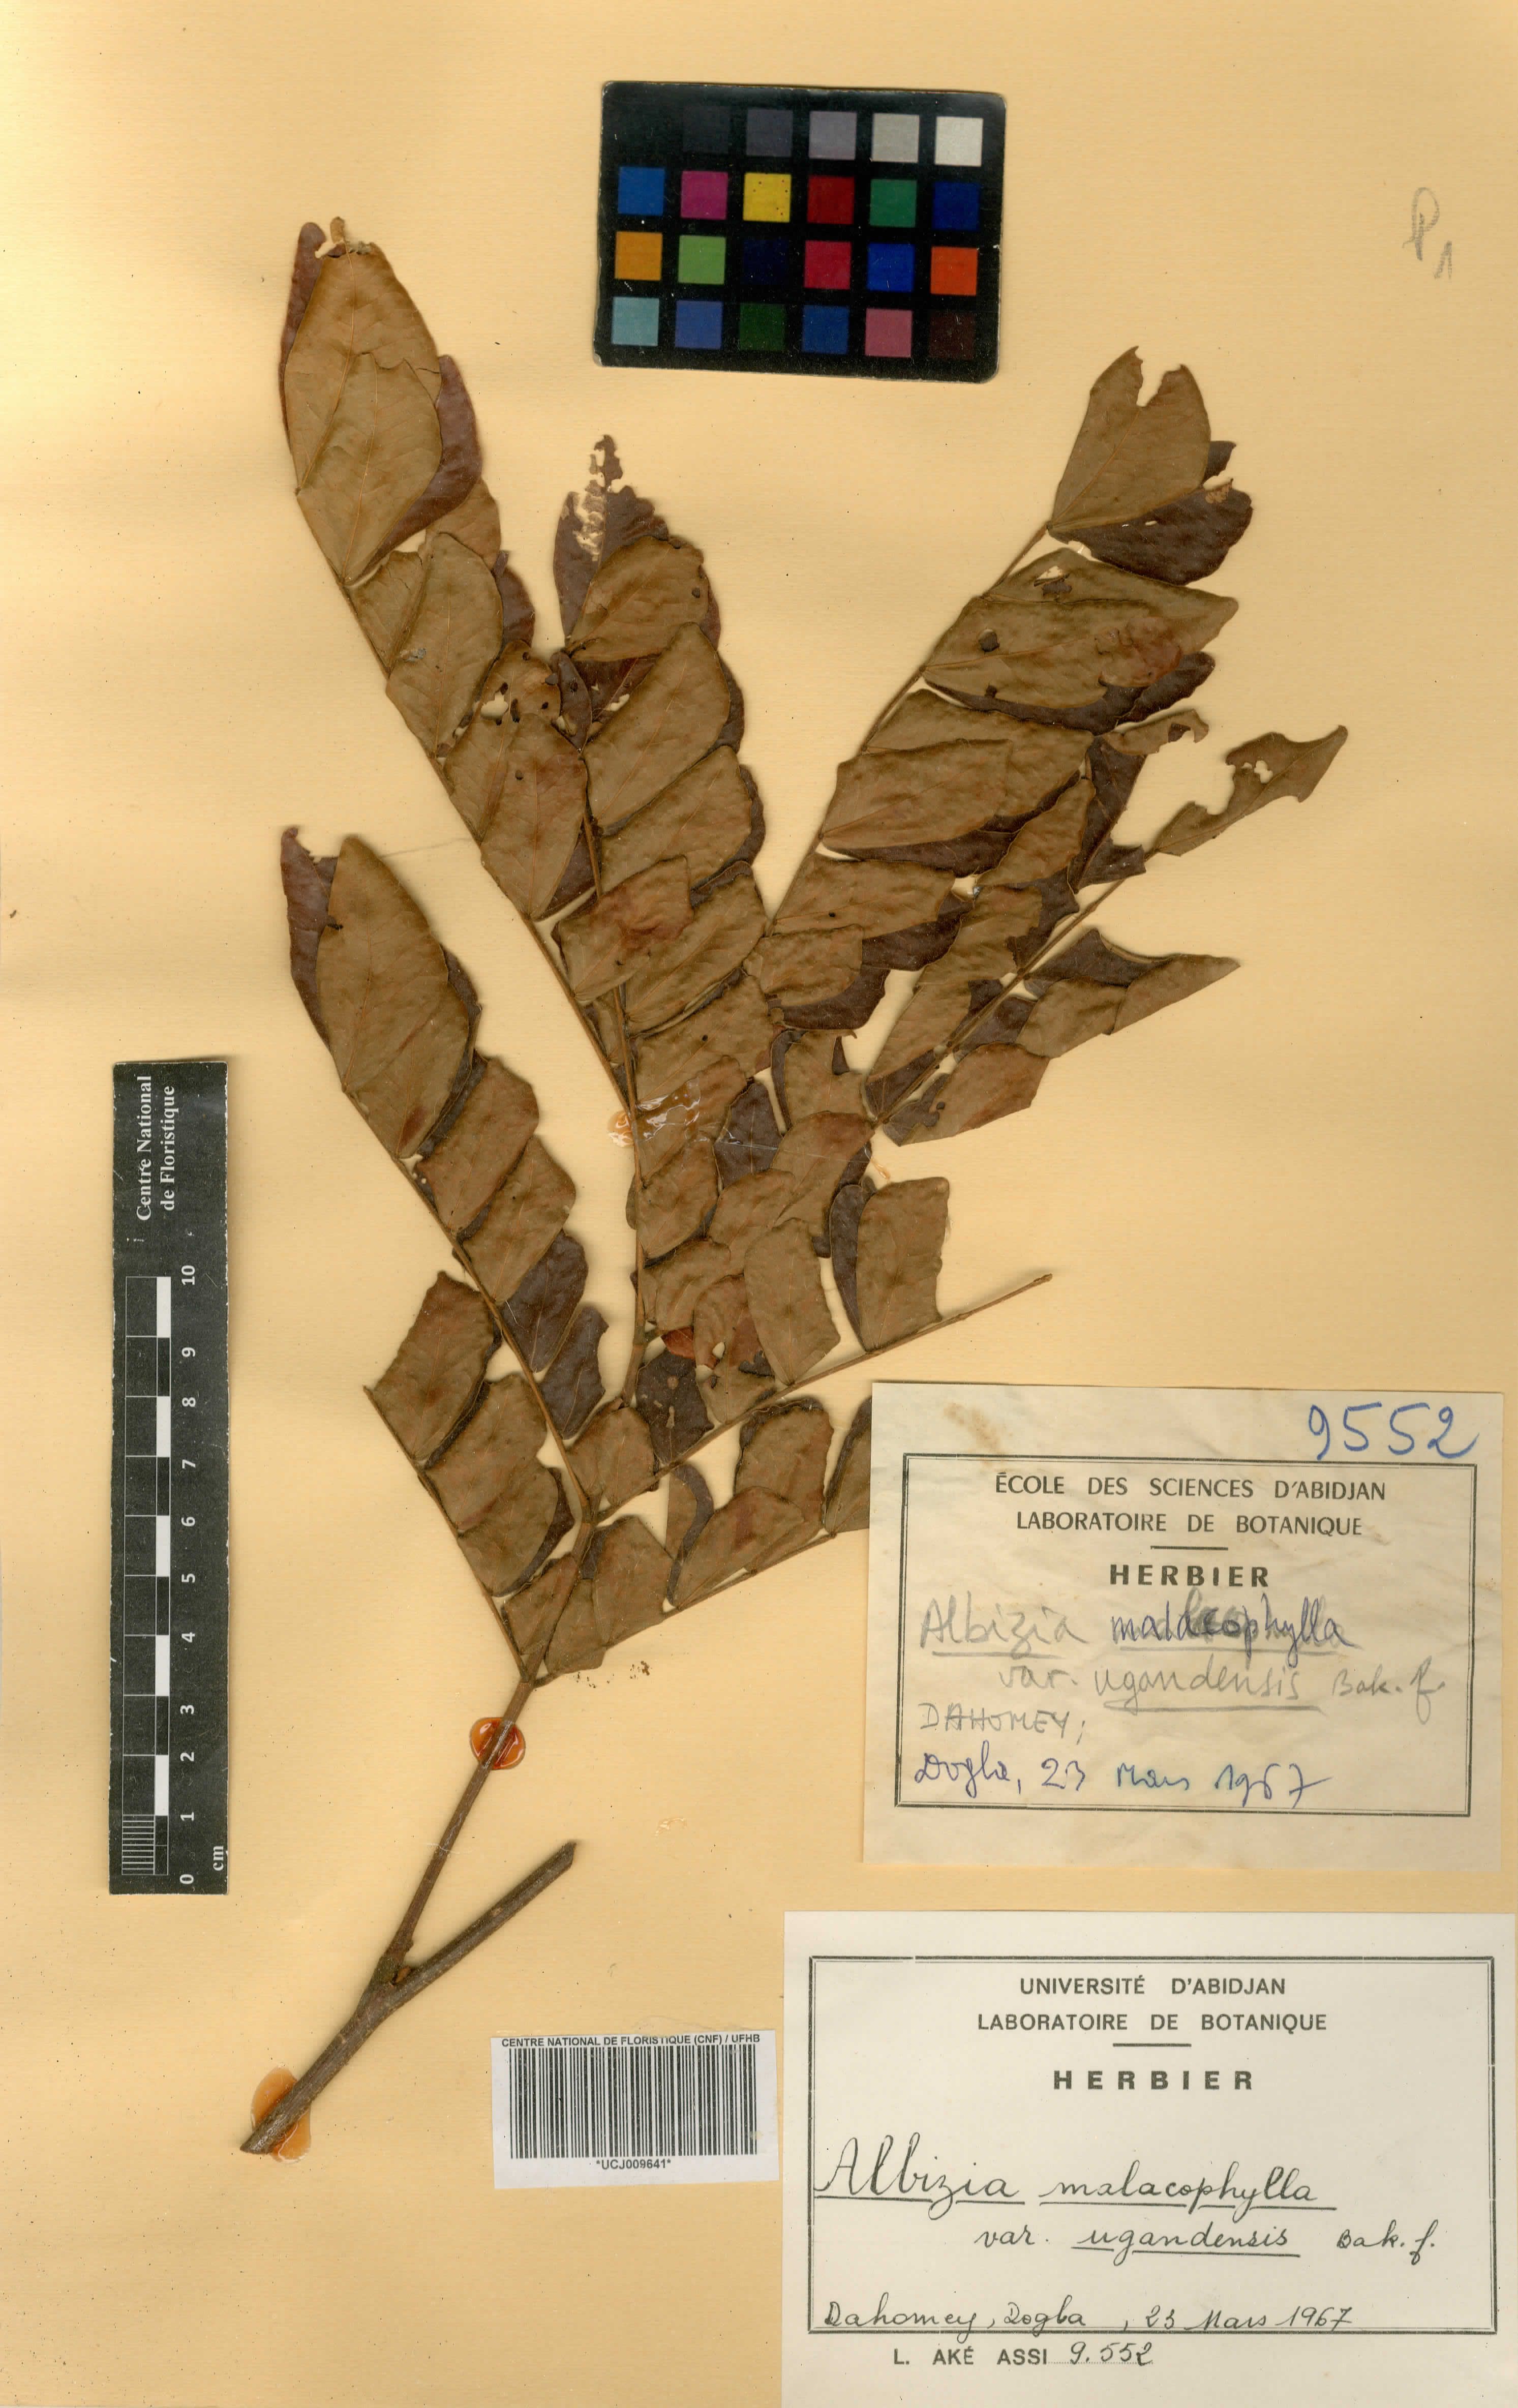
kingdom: Plantae
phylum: Tracheophyta
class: Magnoliopsida
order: Fabales
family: Fabaceae
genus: Albizia
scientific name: Albizia malacophylla
